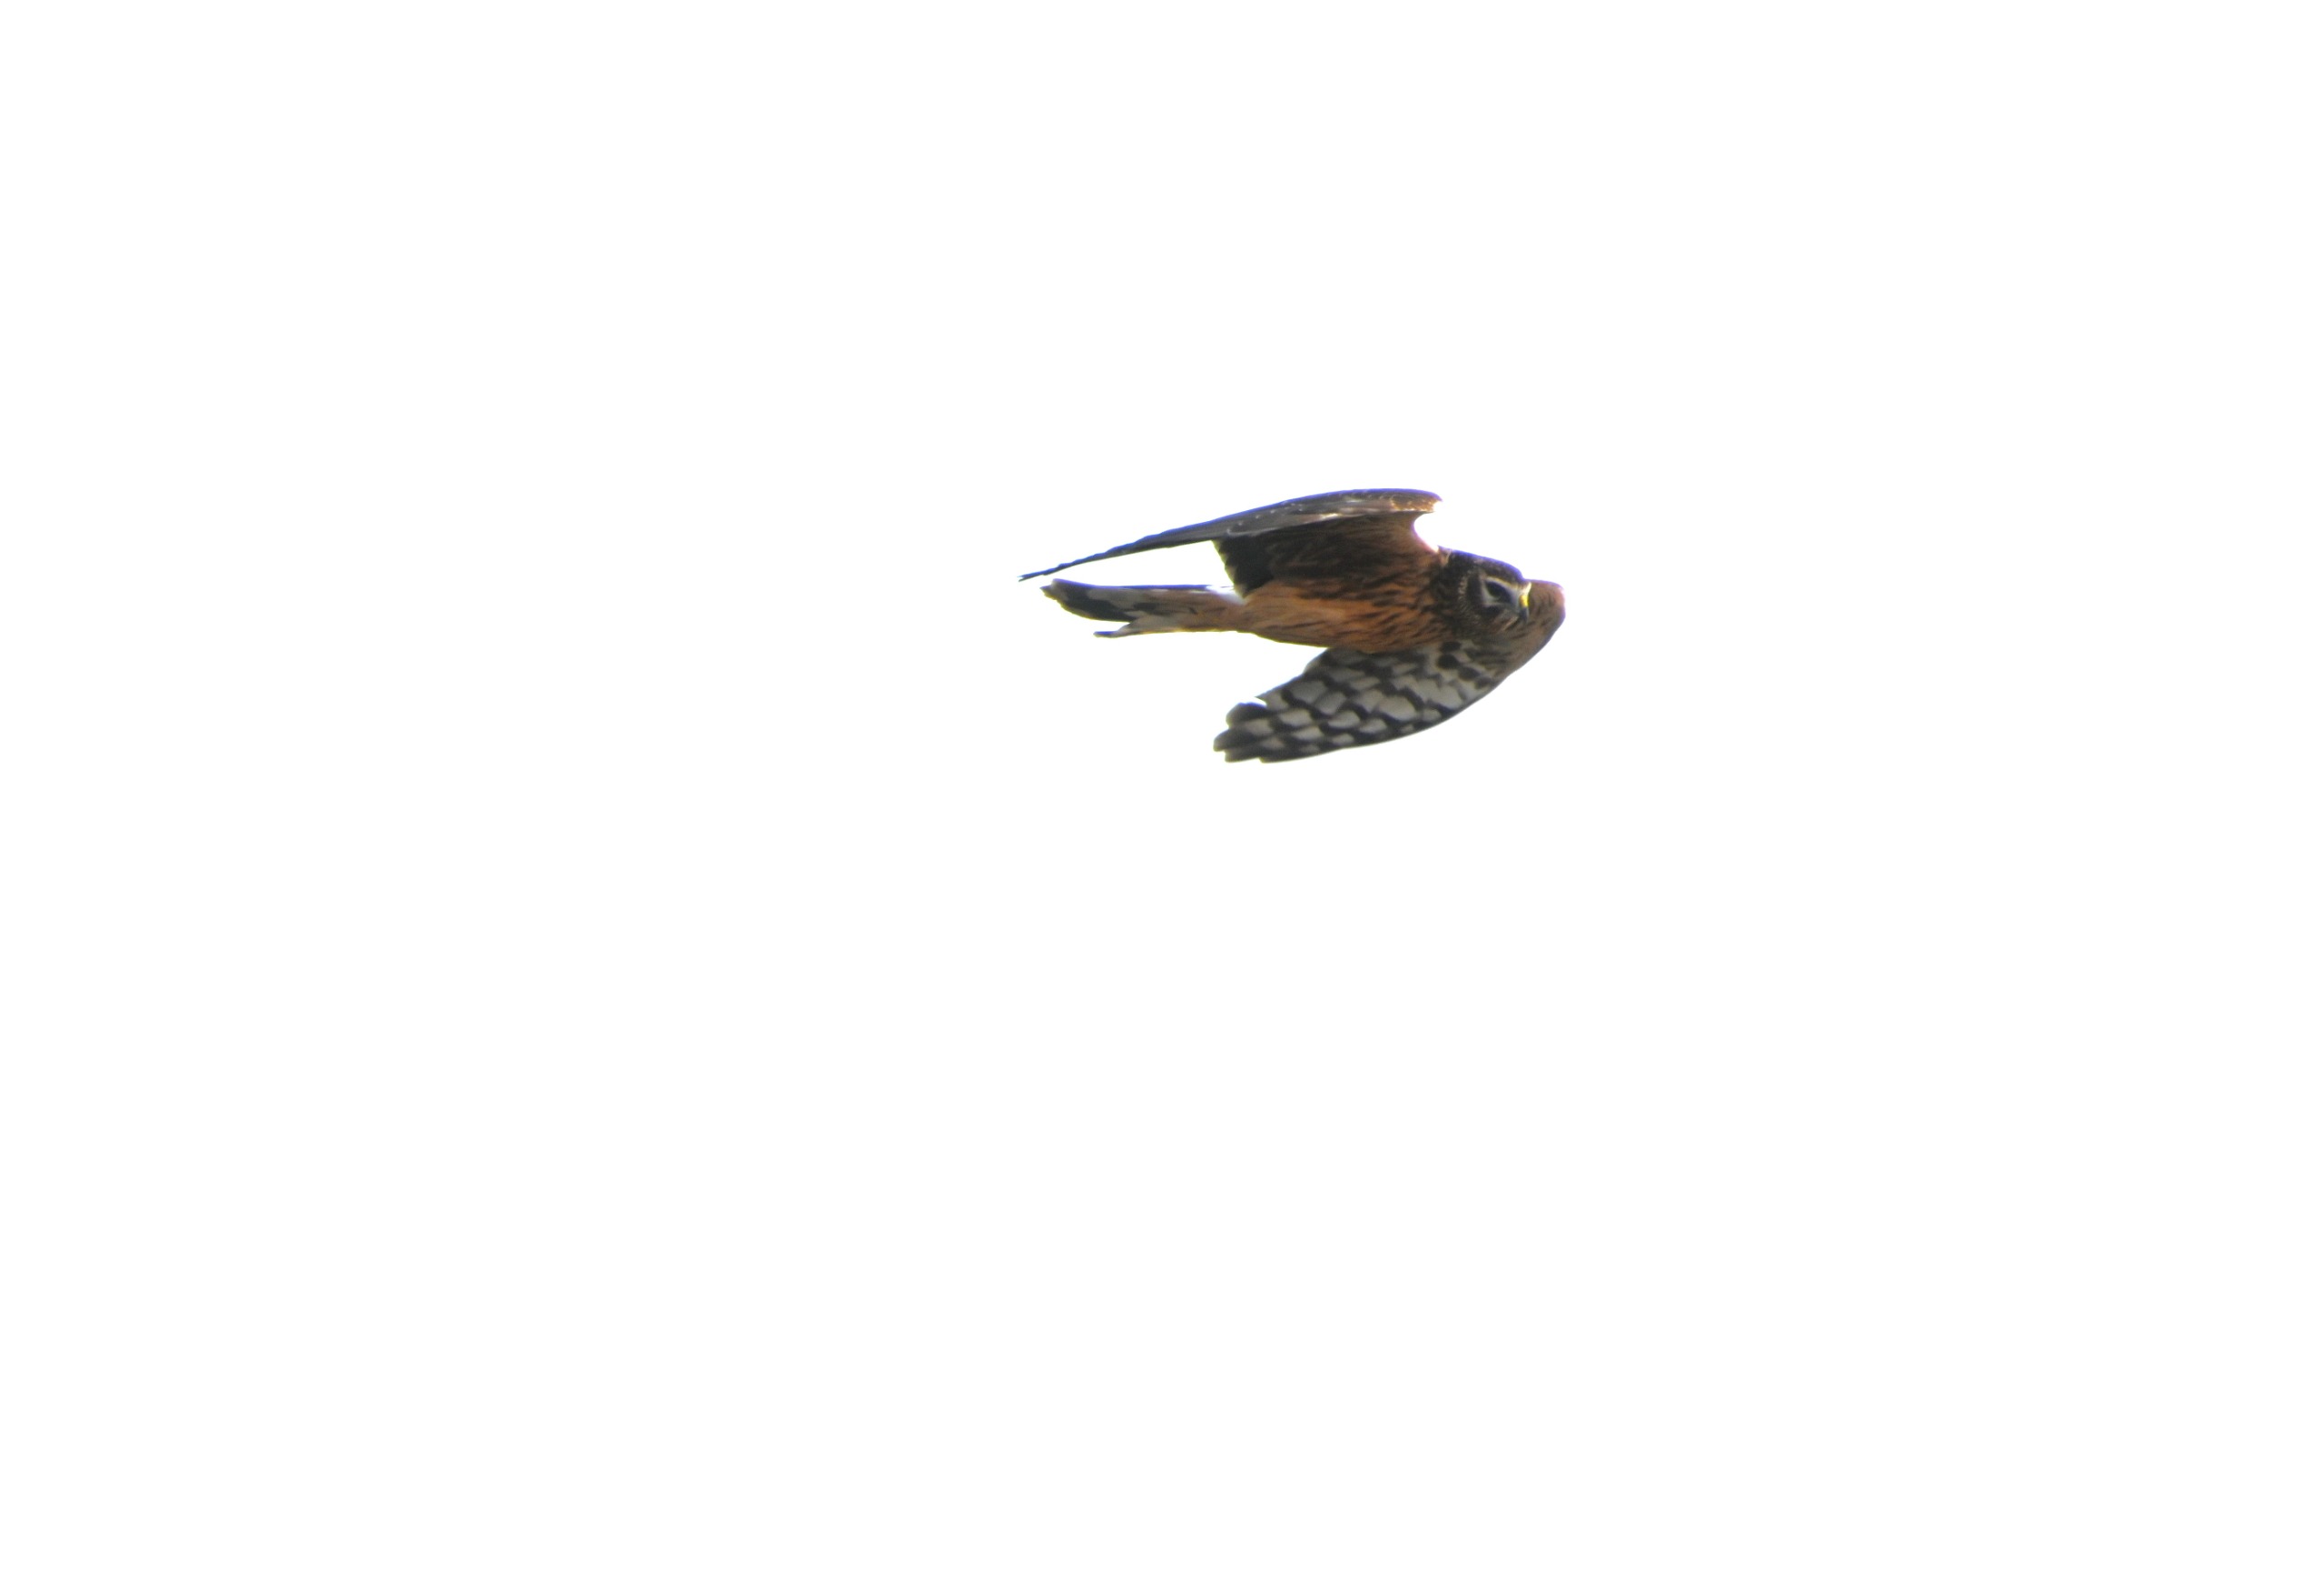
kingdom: Animalia
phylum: Chordata
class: Aves
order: Accipitriformes
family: Accipitridae
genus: Circus
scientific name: Circus cyaneus
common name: Blå kærhøg
